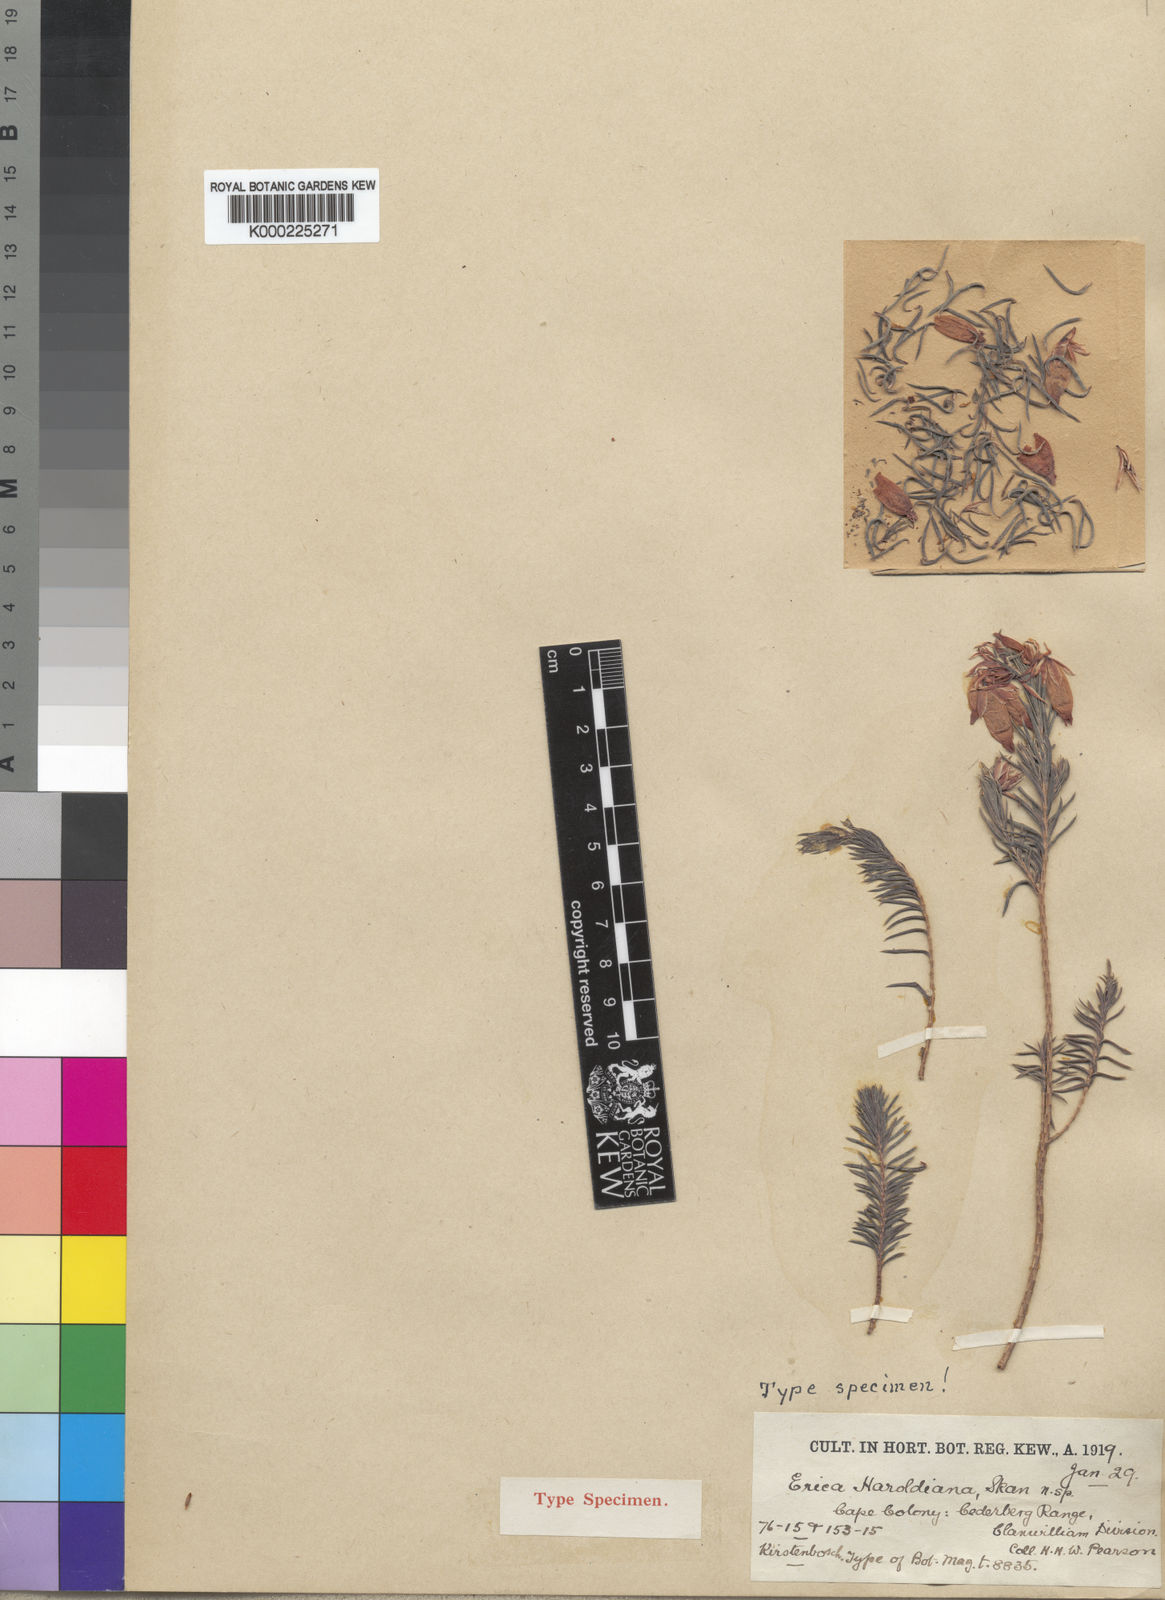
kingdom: Plantae
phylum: Tracheophyta
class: Magnoliopsida
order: Ericales
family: Ericaceae
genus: Erica
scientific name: Erica eugenea
